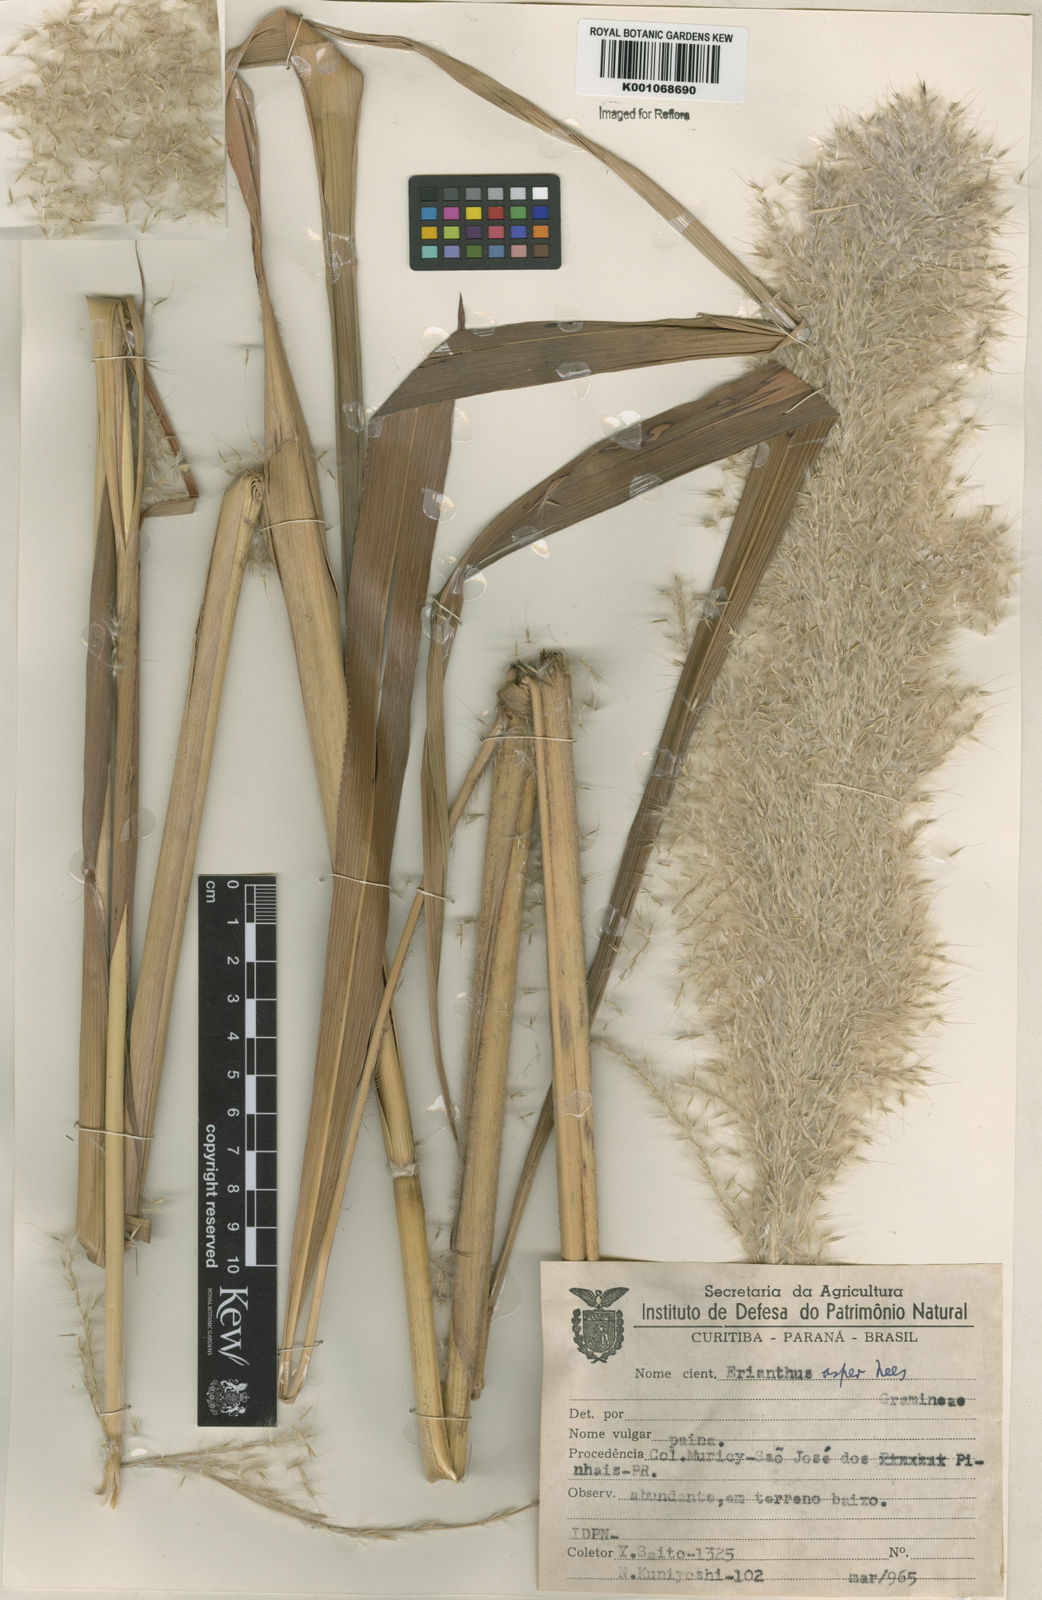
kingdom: Plantae
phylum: Tracheophyta
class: Liliopsida
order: Poales
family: Poaceae
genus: Erianthus
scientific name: Erianthus asper
